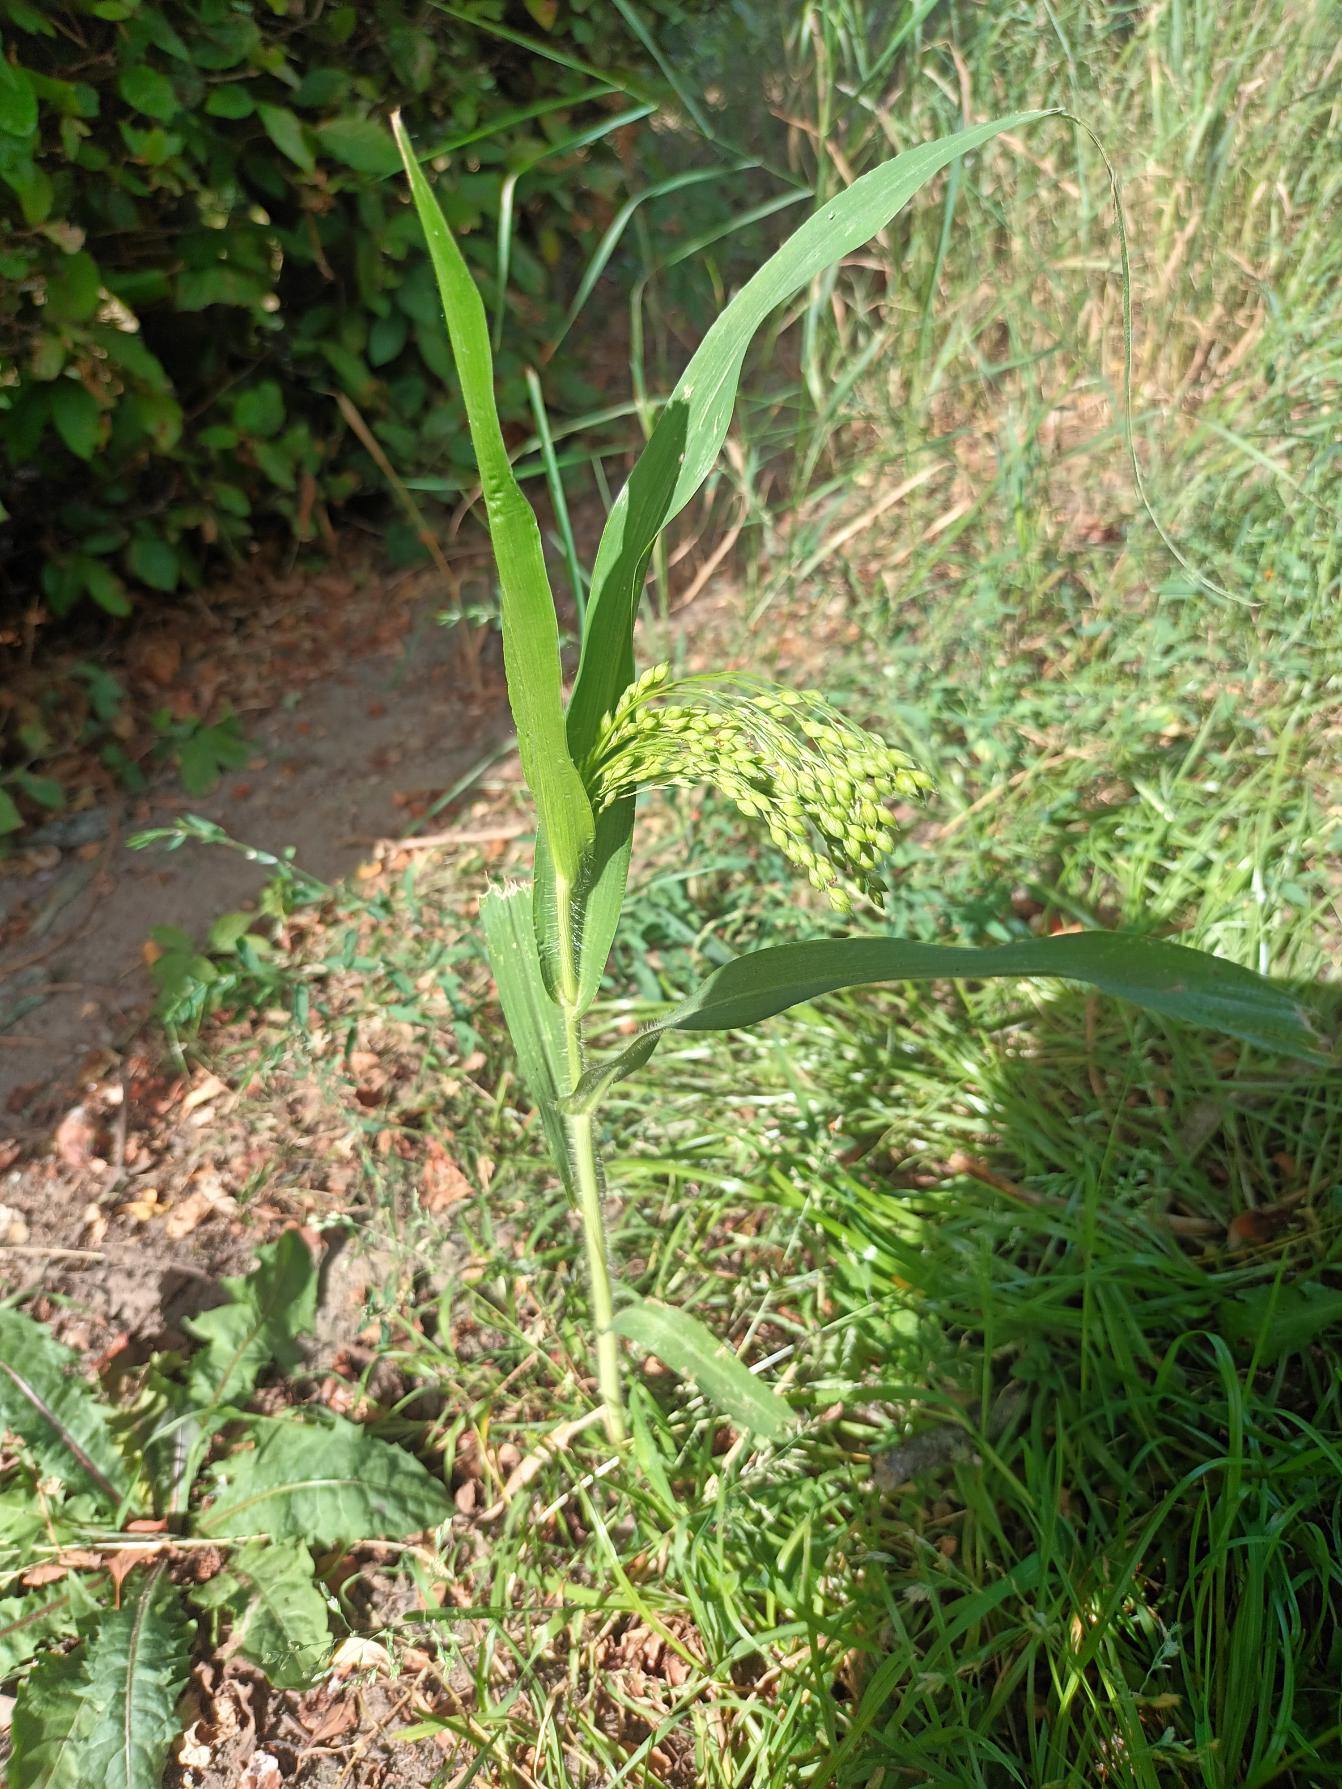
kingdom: Plantae
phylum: Tracheophyta
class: Liliopsida
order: Poales
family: Poaceae
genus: Panicum
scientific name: Panicum miliaceum
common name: Almindelig hirse
